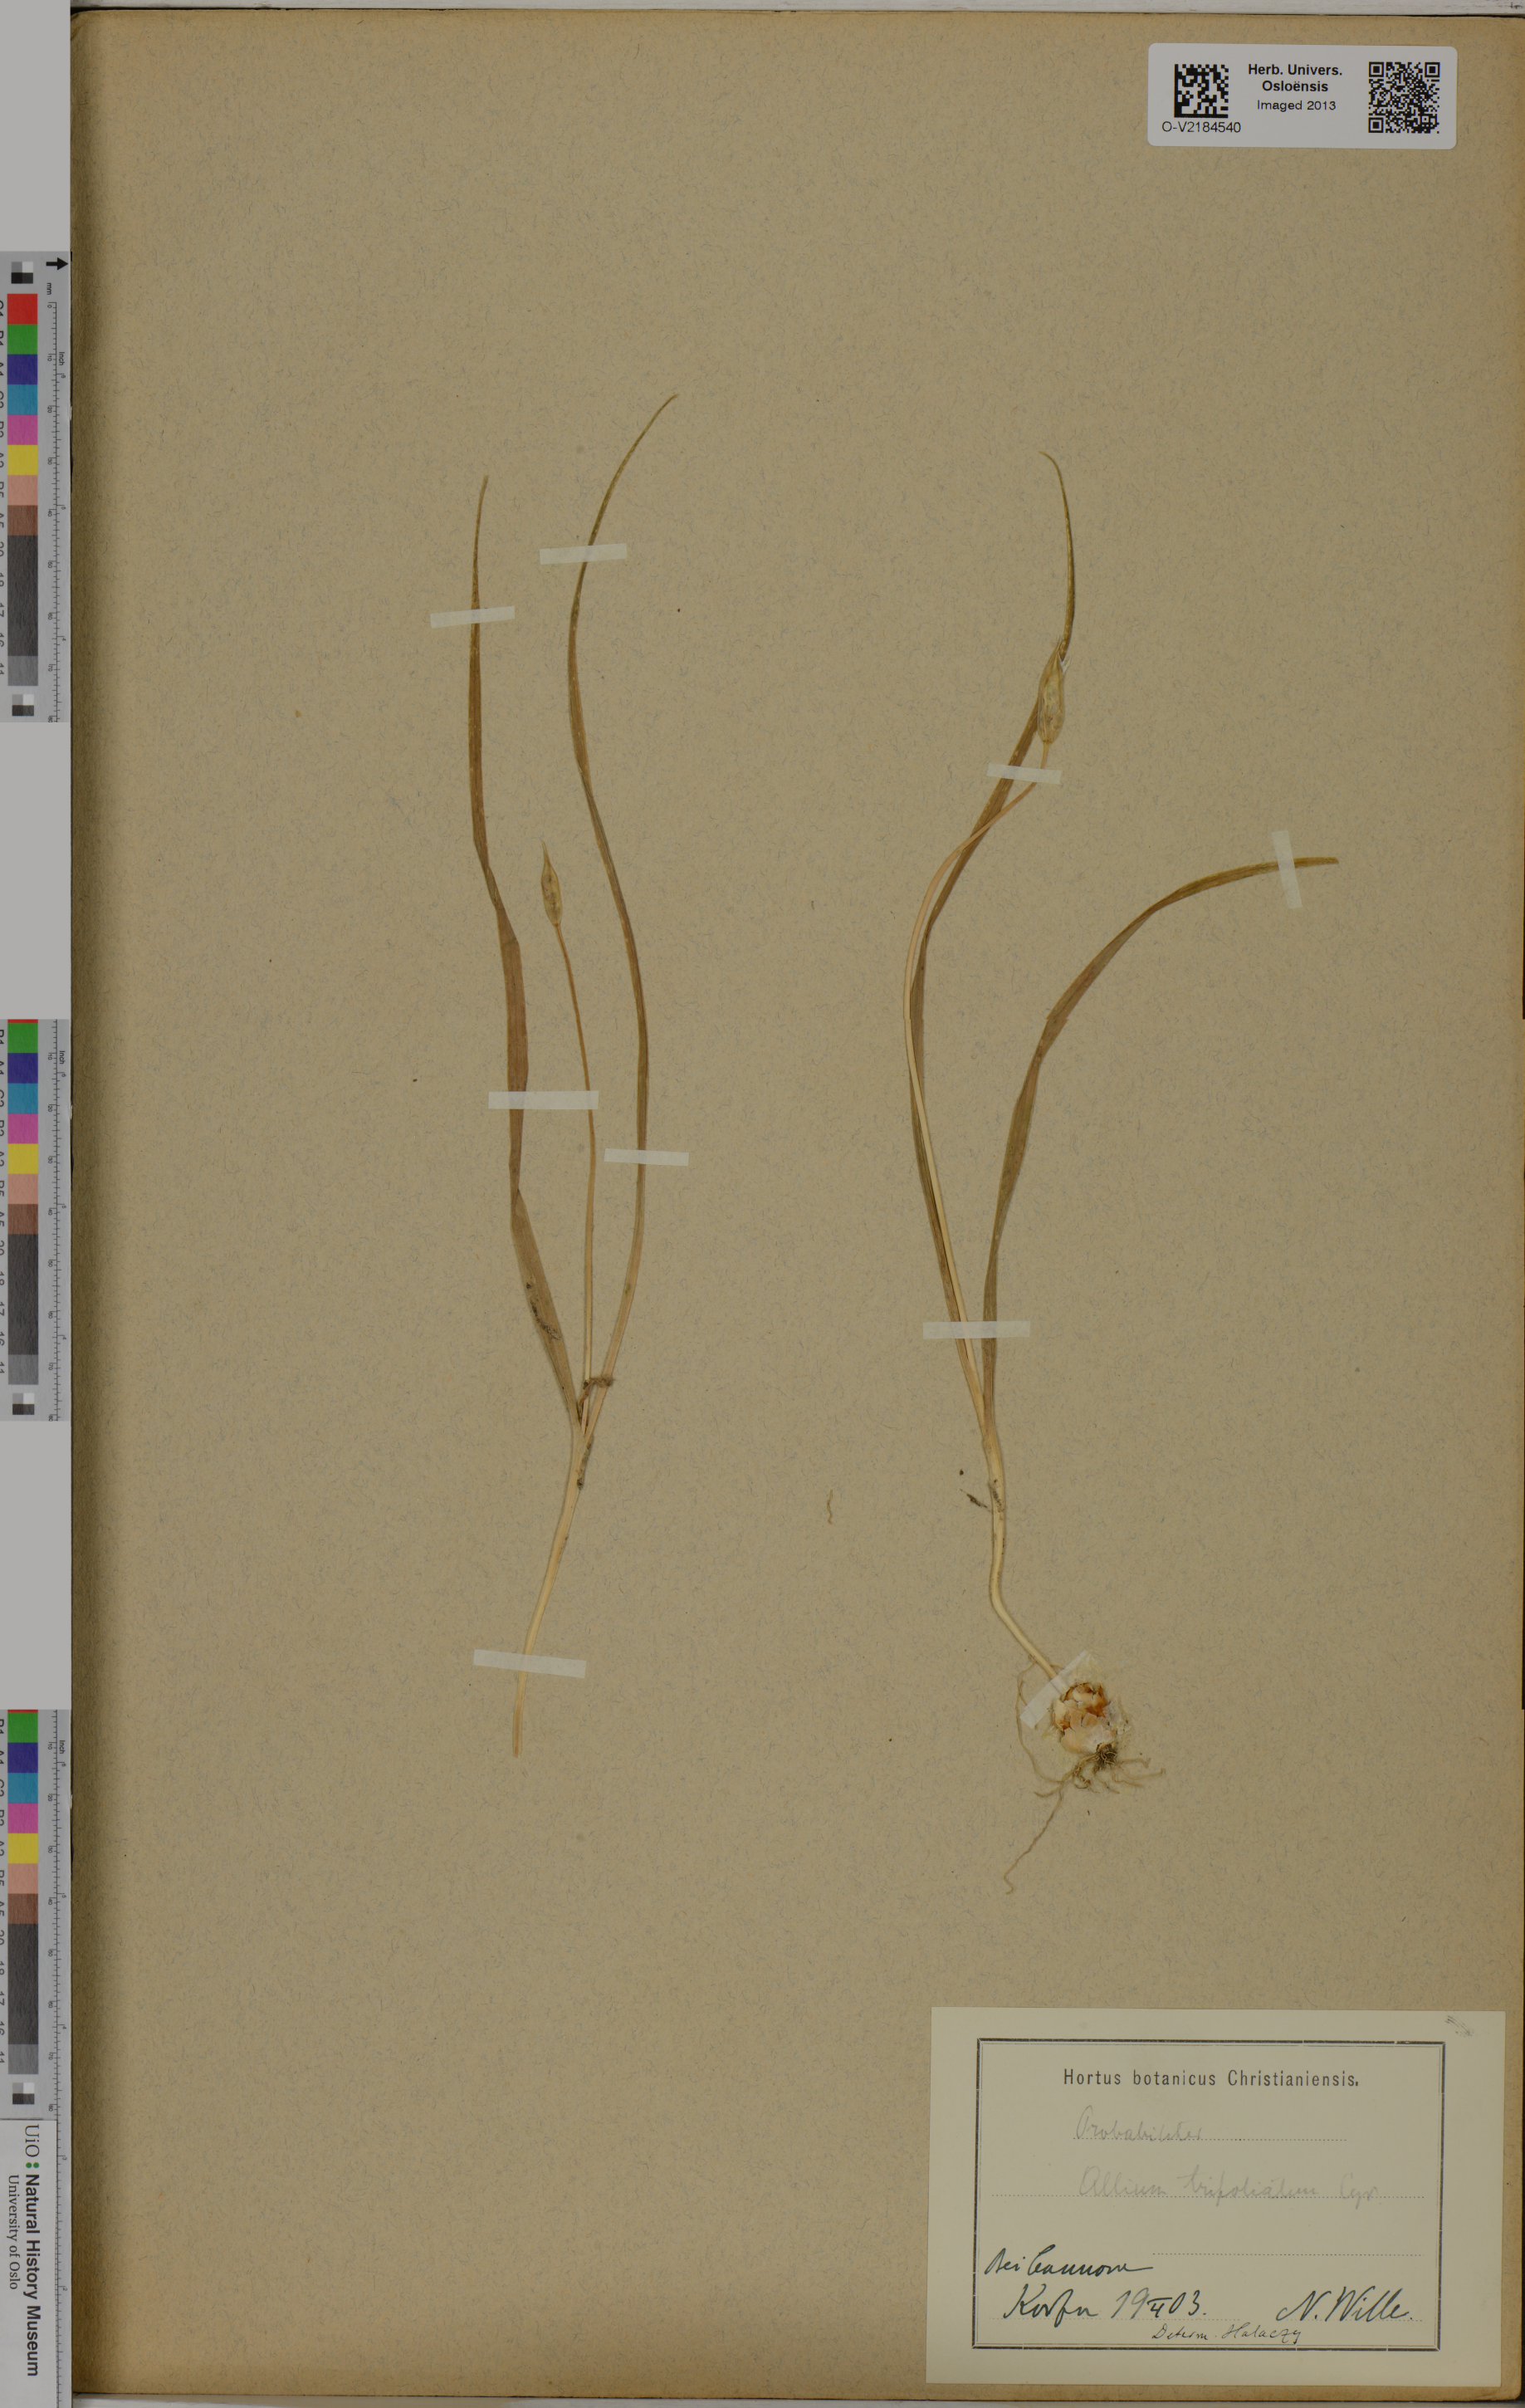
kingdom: Plantae
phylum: Tracheophyta
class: Liliopsida
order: Asparagales
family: Amaryllidaceae
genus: Allium
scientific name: Allium trifoliatum
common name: Pink garlic
